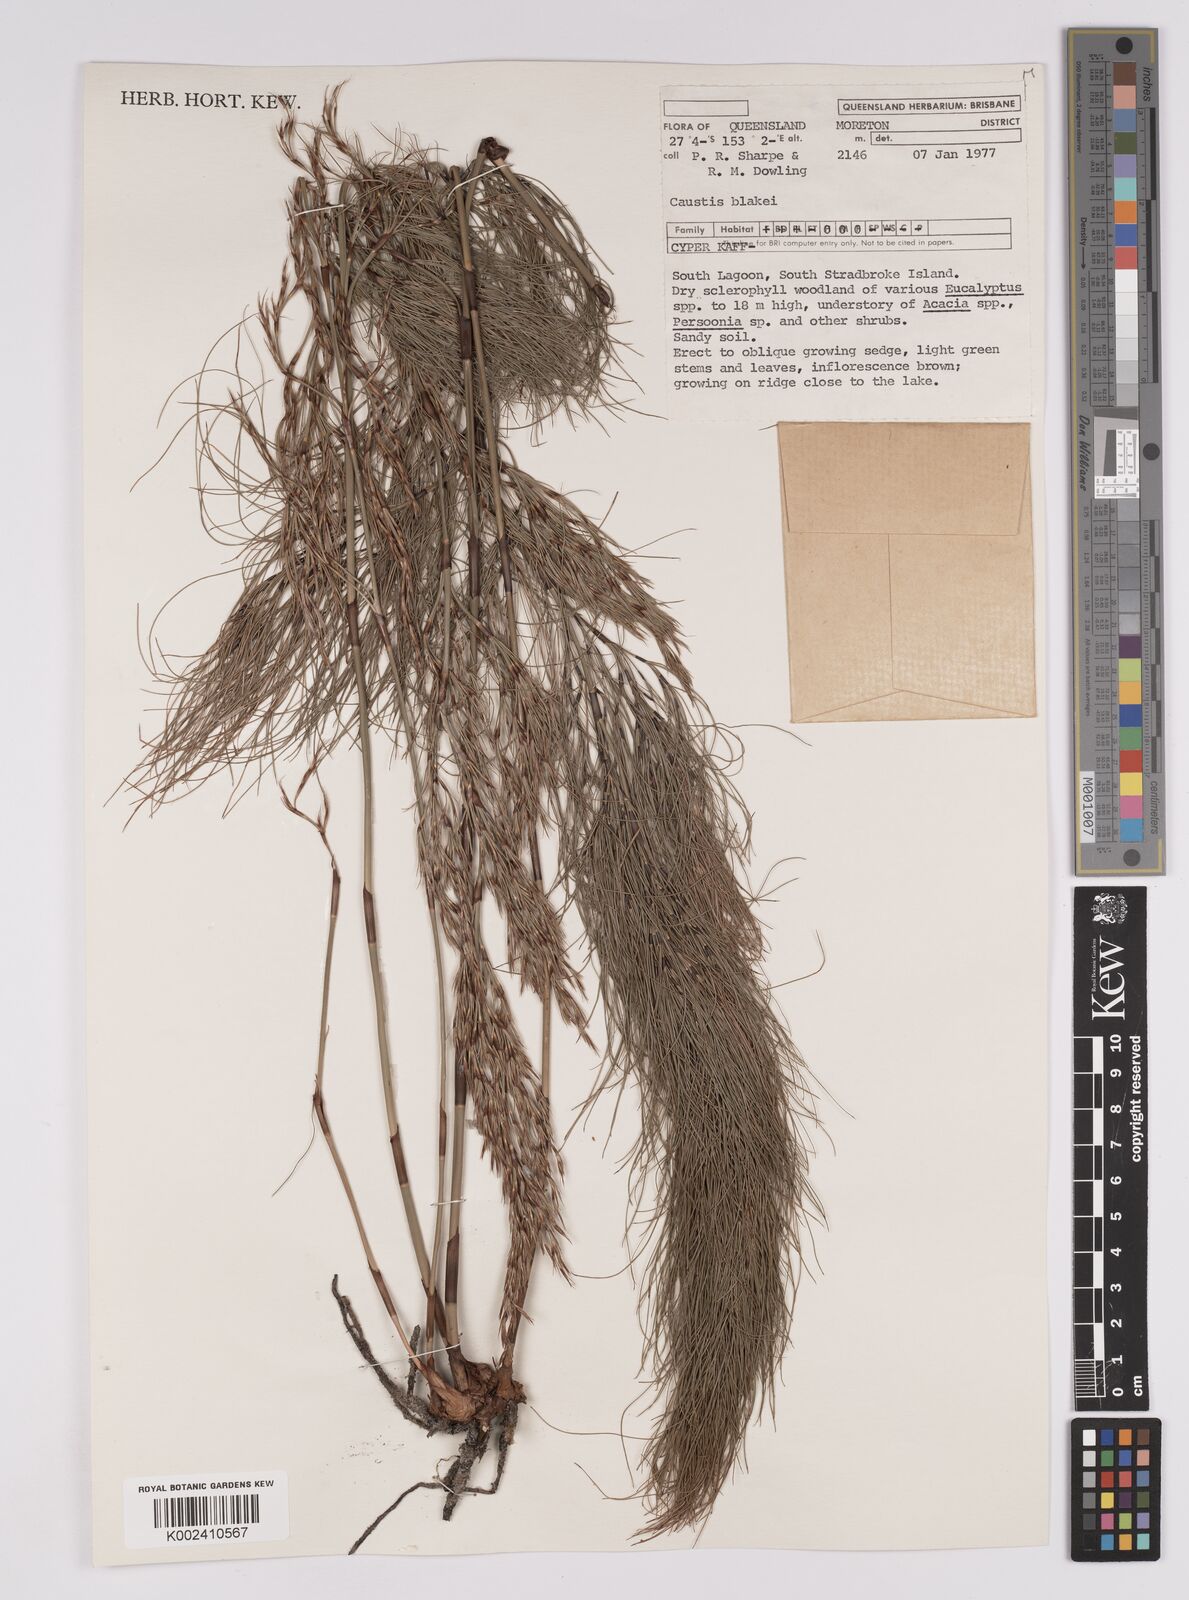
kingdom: Plantae
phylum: Tracheophyta
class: Liliopsida
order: Poales
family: Cyperaceae
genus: Caustis
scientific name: Caustis blakei
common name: Foxtail-fern
